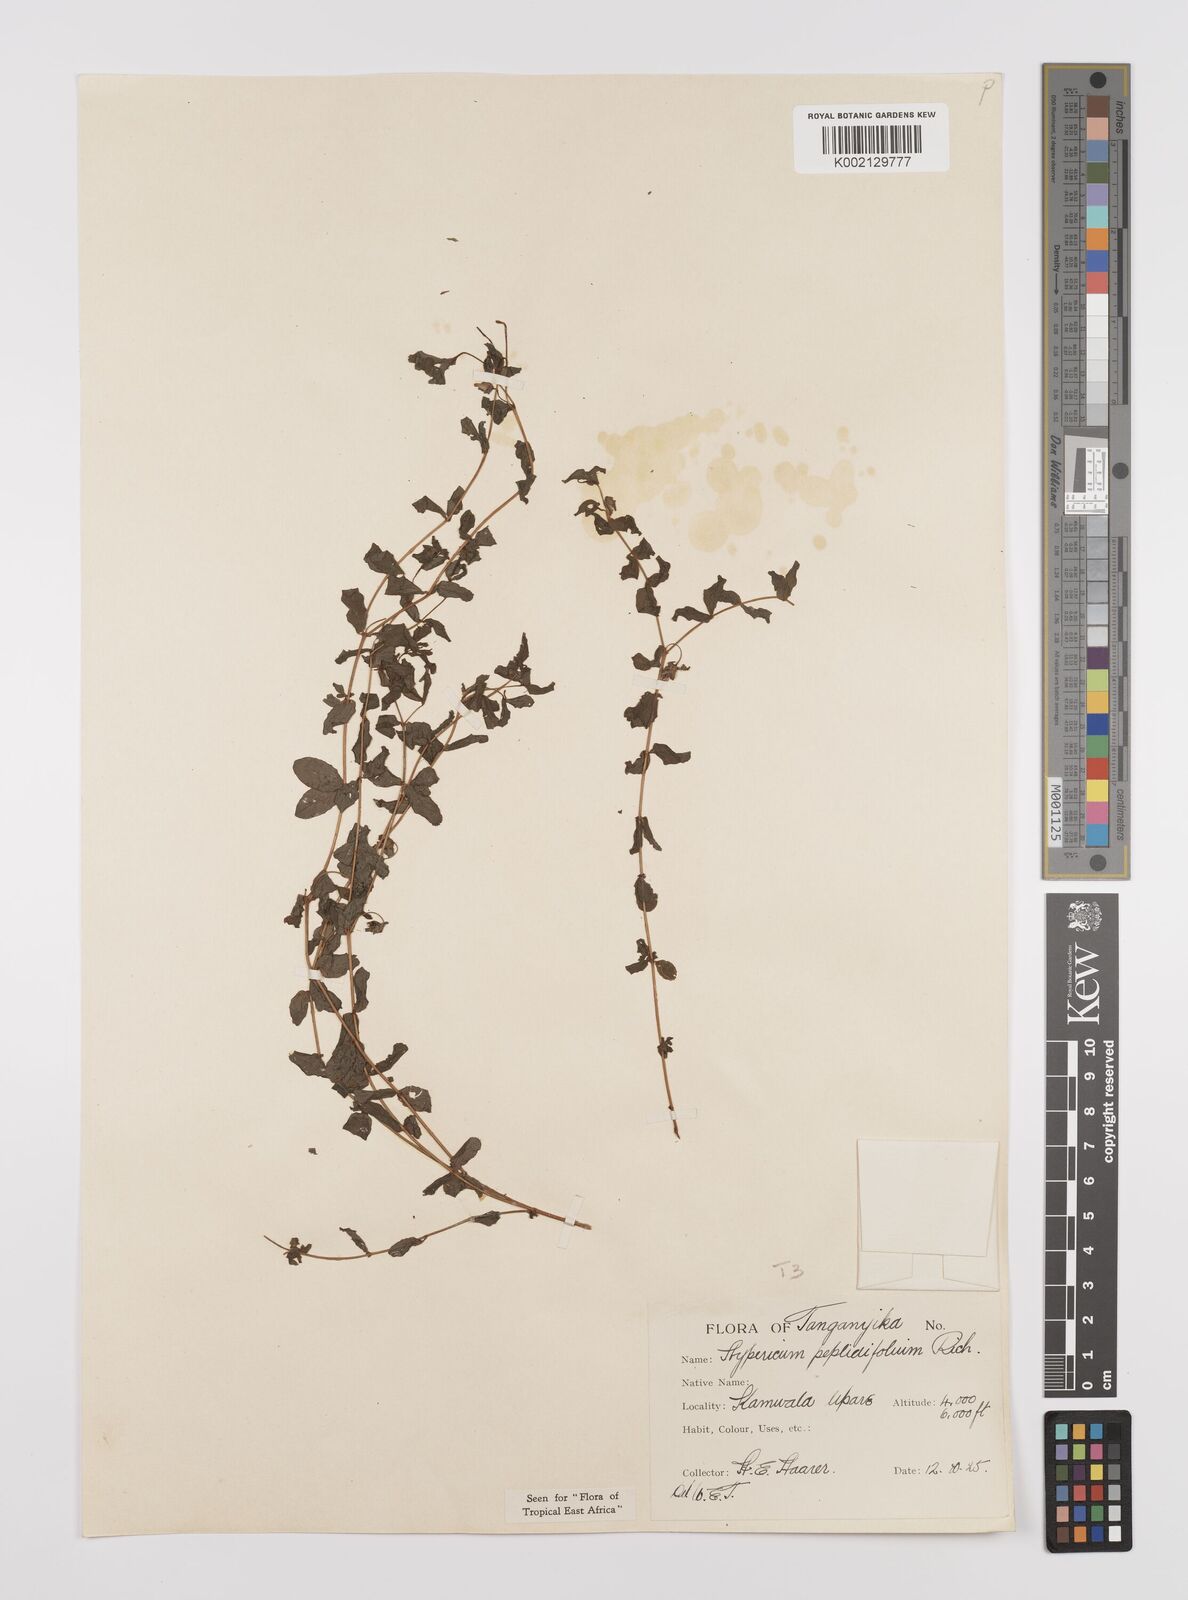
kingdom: Plantae
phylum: Tracheophyta
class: Magnoliopsida
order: Malpighiales
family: Hypericaceae
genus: Hypericum
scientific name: Hypericum peplidifolium
